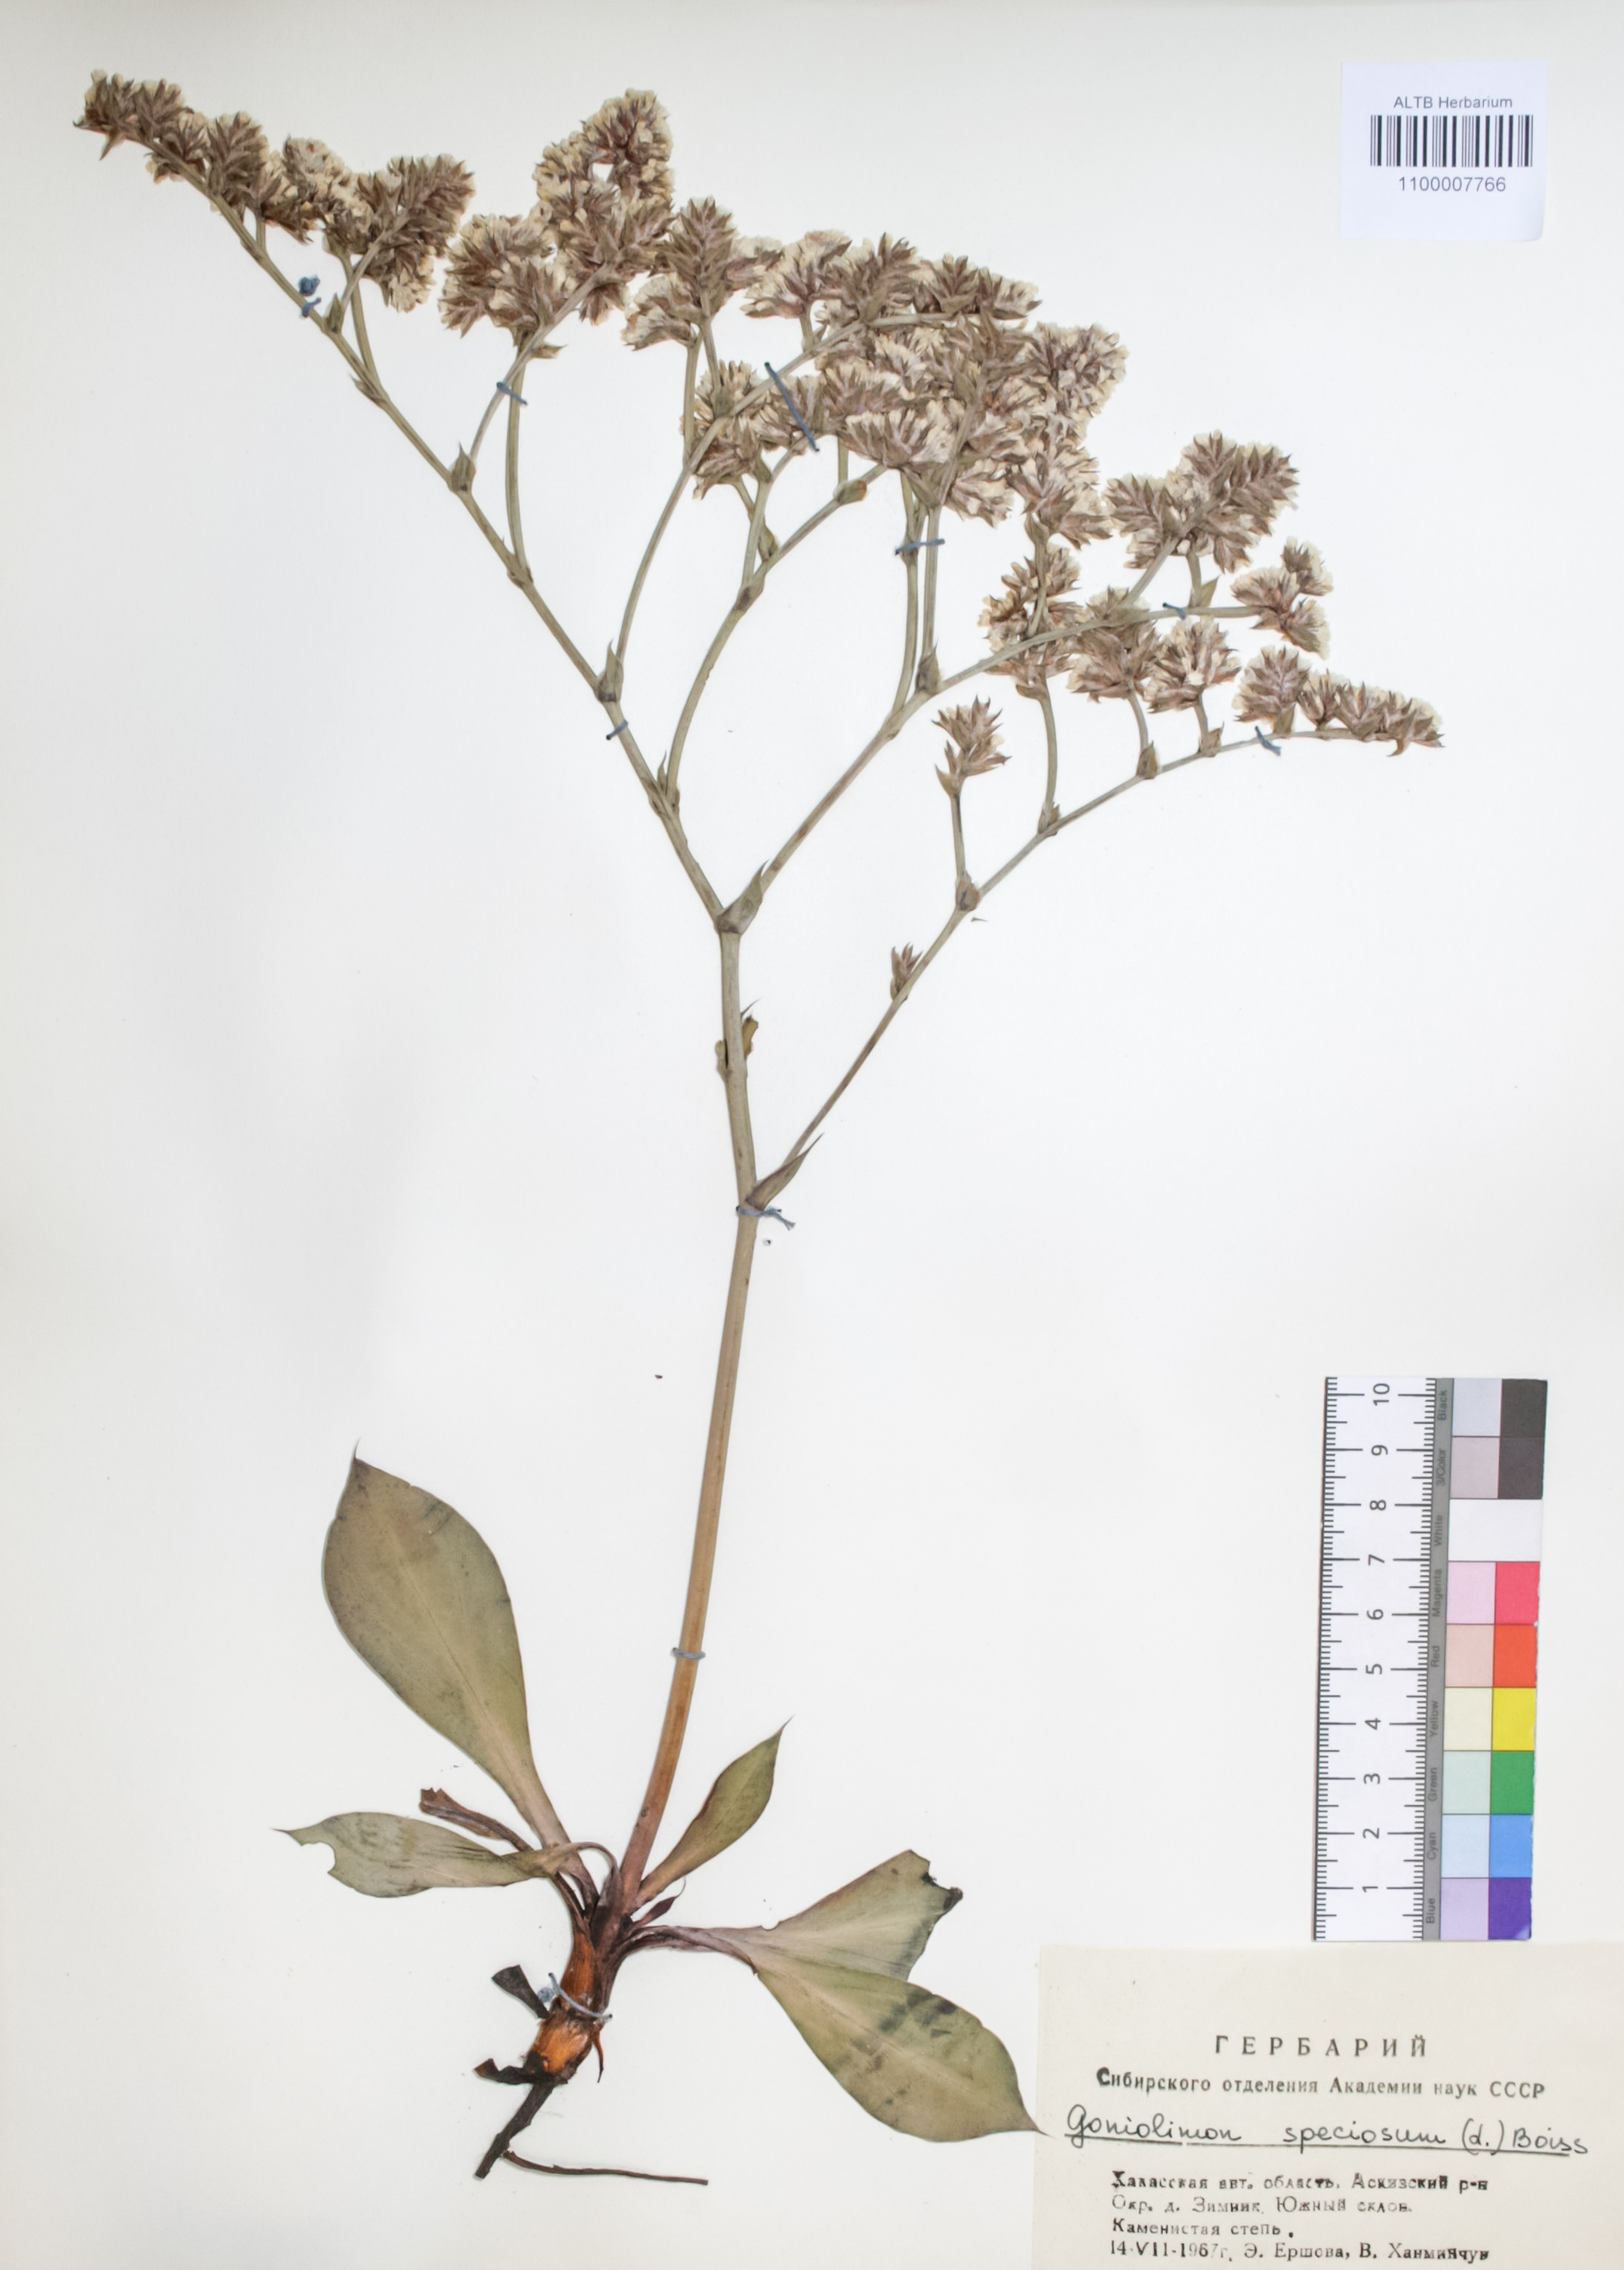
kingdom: Plantae
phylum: Tracheophyta
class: Magnoliopsida
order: Caryophyllales
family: Plumbaginaceae
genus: Goniolimon
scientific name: Goniolimon speciosum
